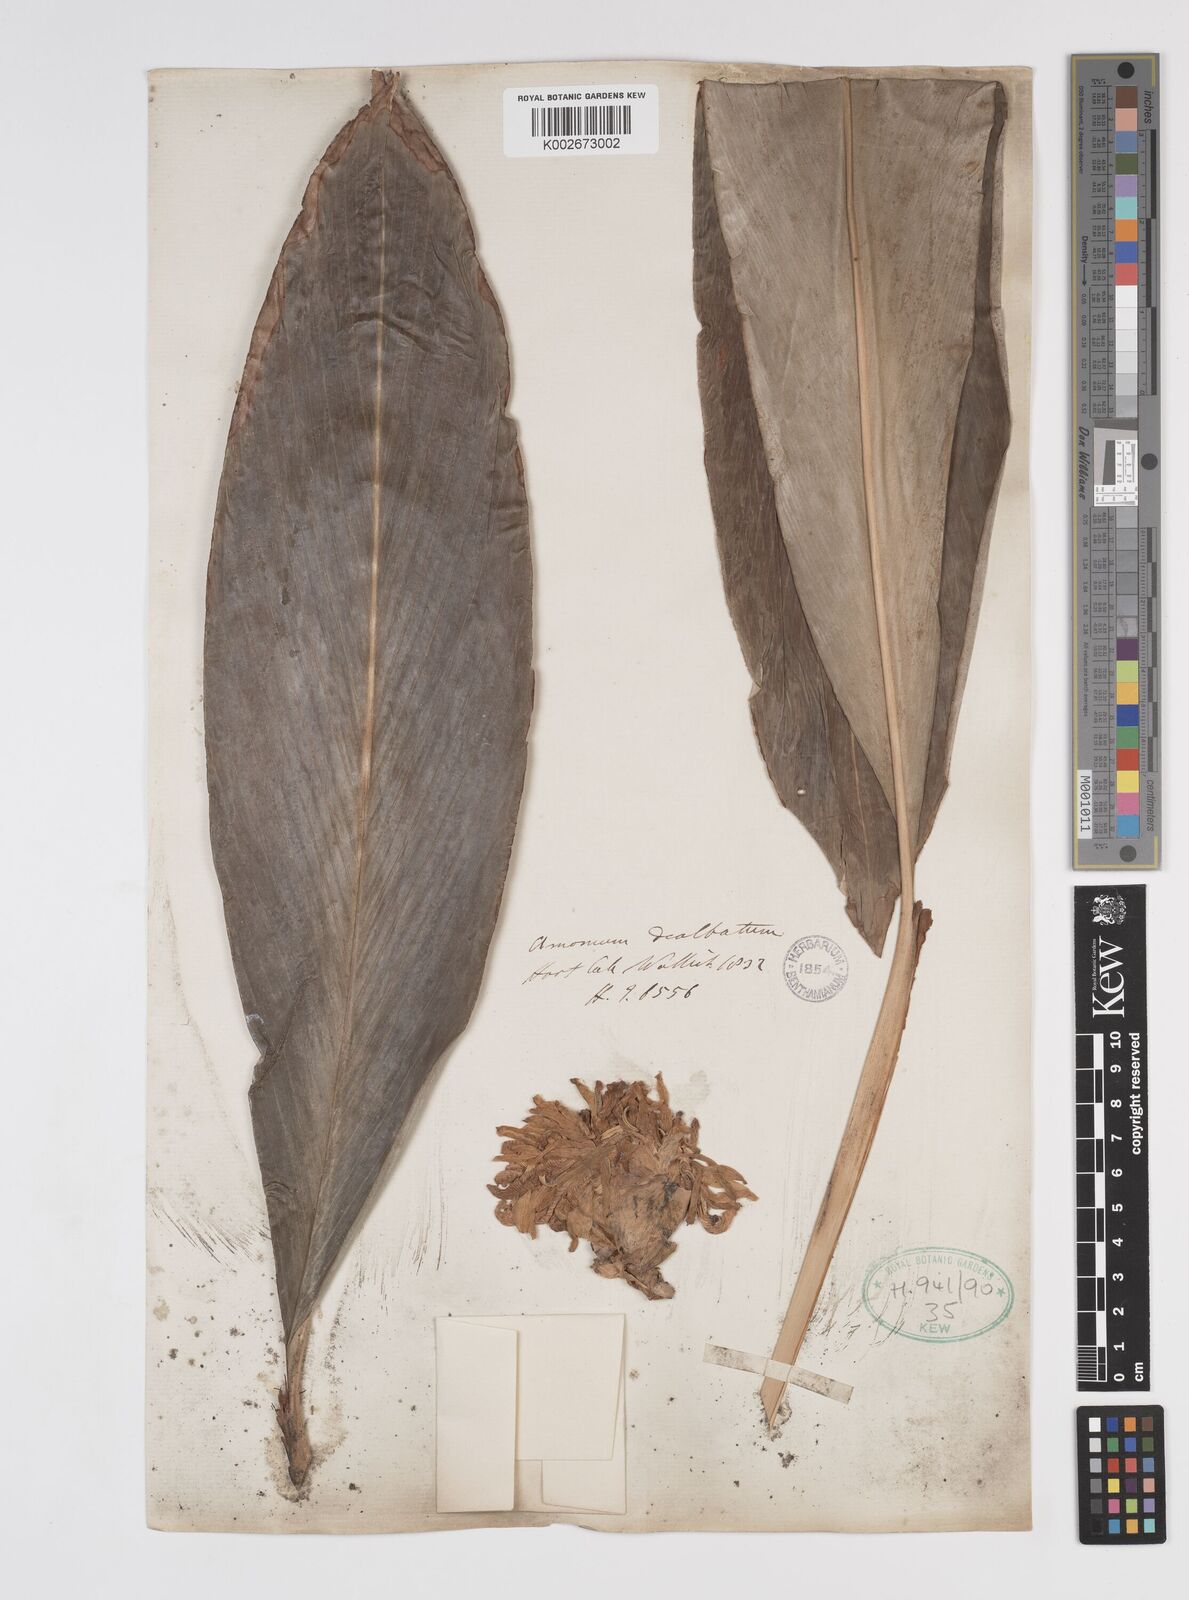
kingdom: Plantae
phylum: Tracheophyta
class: Liliopsida
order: Zingiberales
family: Zingiberaceae
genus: Amomum
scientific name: Amomum dealbatum
